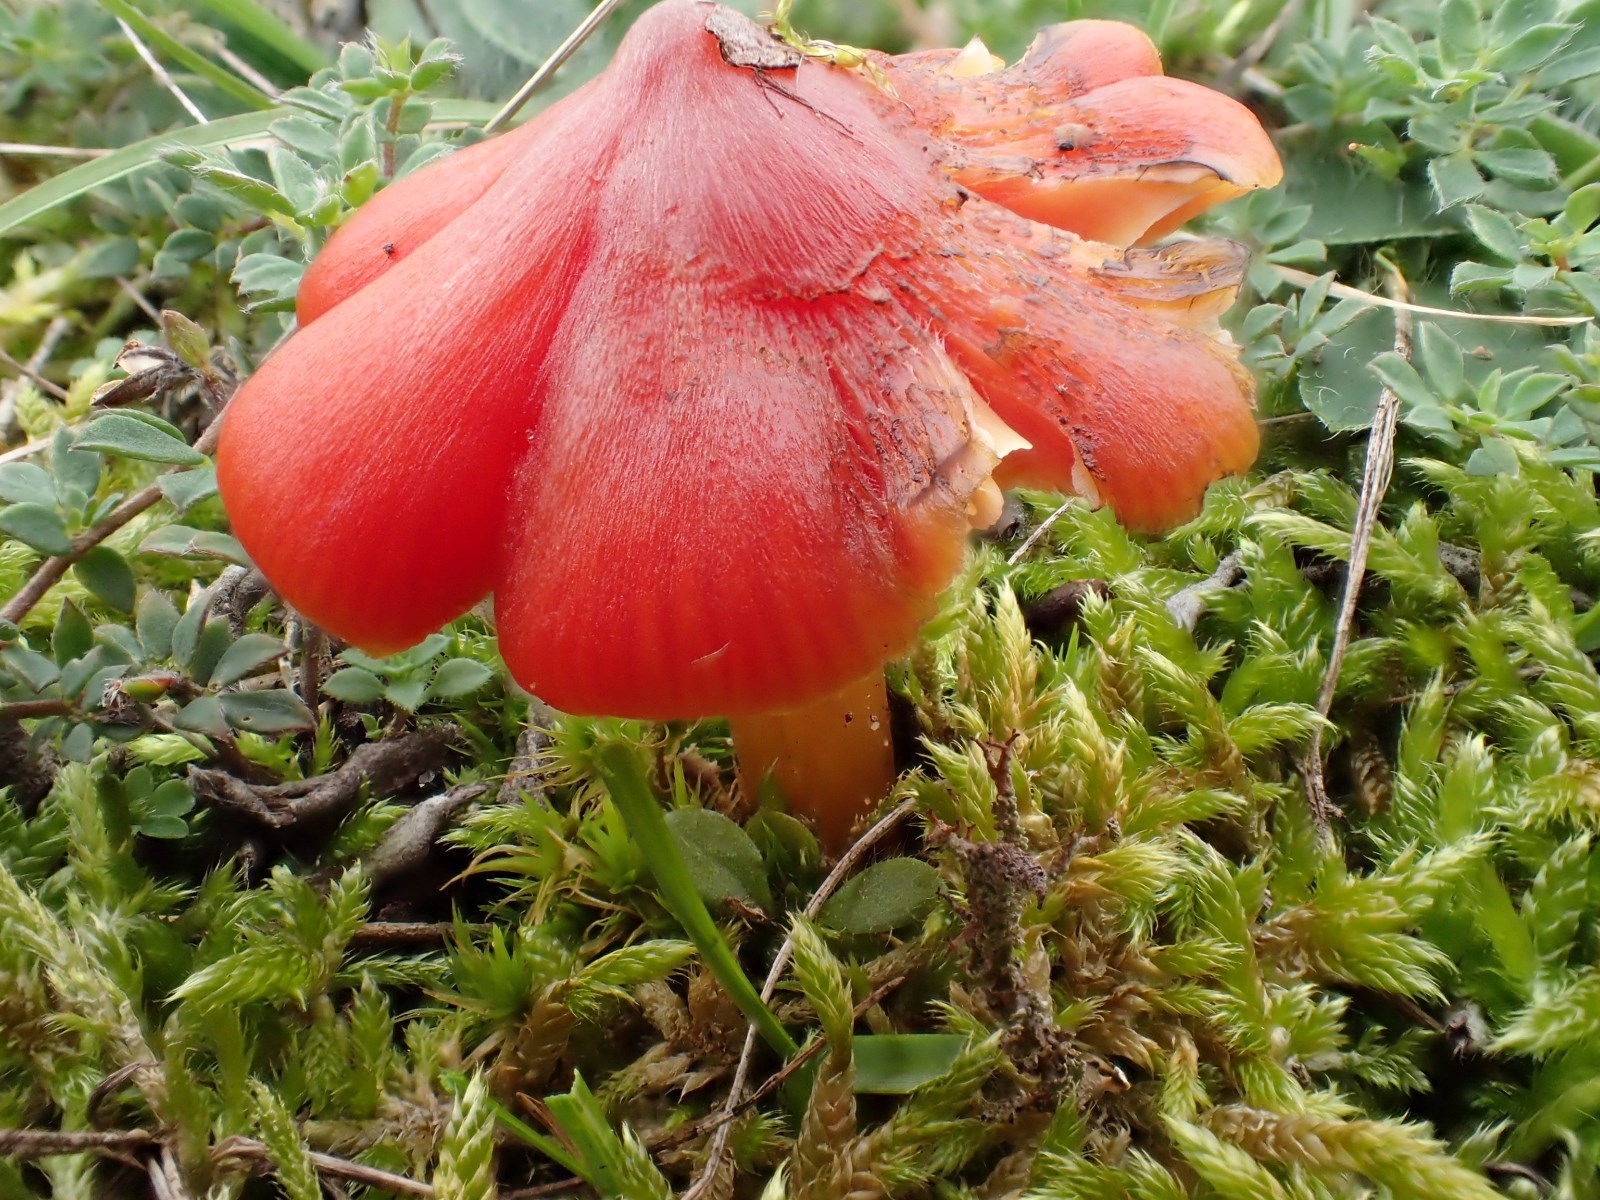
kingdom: Fungi
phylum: Basidiomycota
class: Agaricomycetes
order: Agaricales
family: Hygrophoraceae
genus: Hygrocybe
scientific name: Hygrocybe conicoides
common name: klit-vokshat
